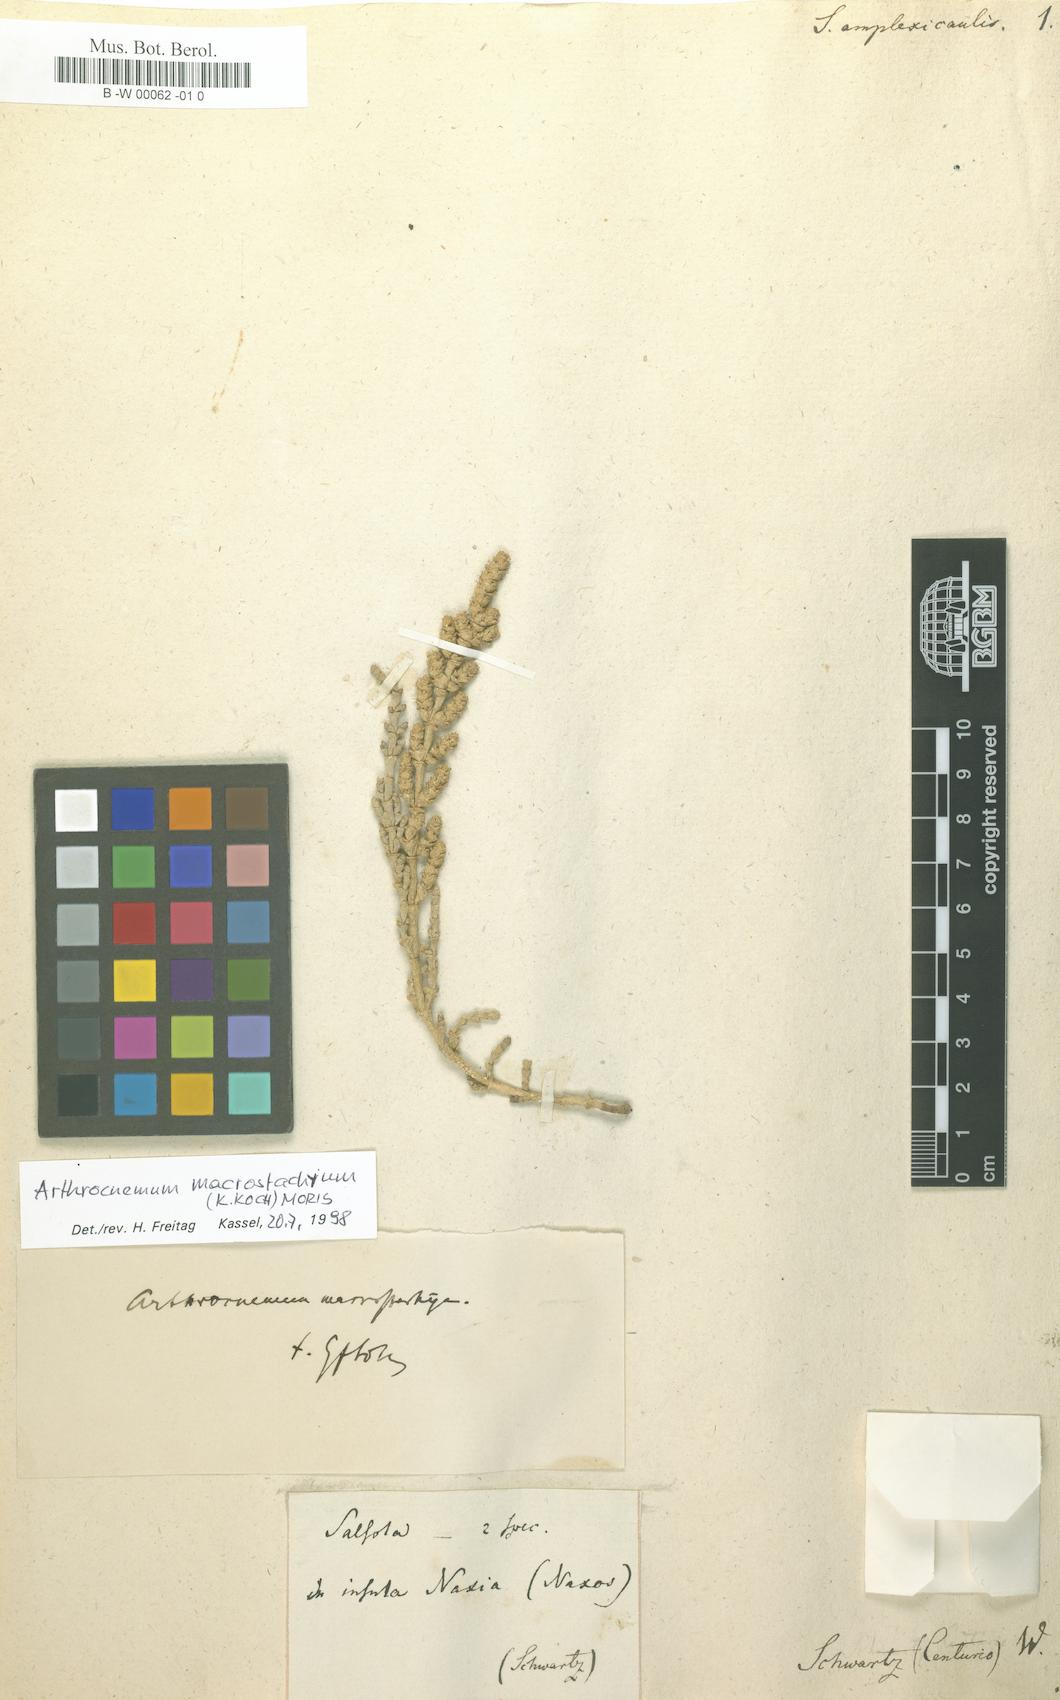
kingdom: Plantae
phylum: Tracheophyta
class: Magnoliopsida
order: Caryophyllales
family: Amaranthaceae
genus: Halopeplis
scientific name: Halopeplis amplexicaulis
